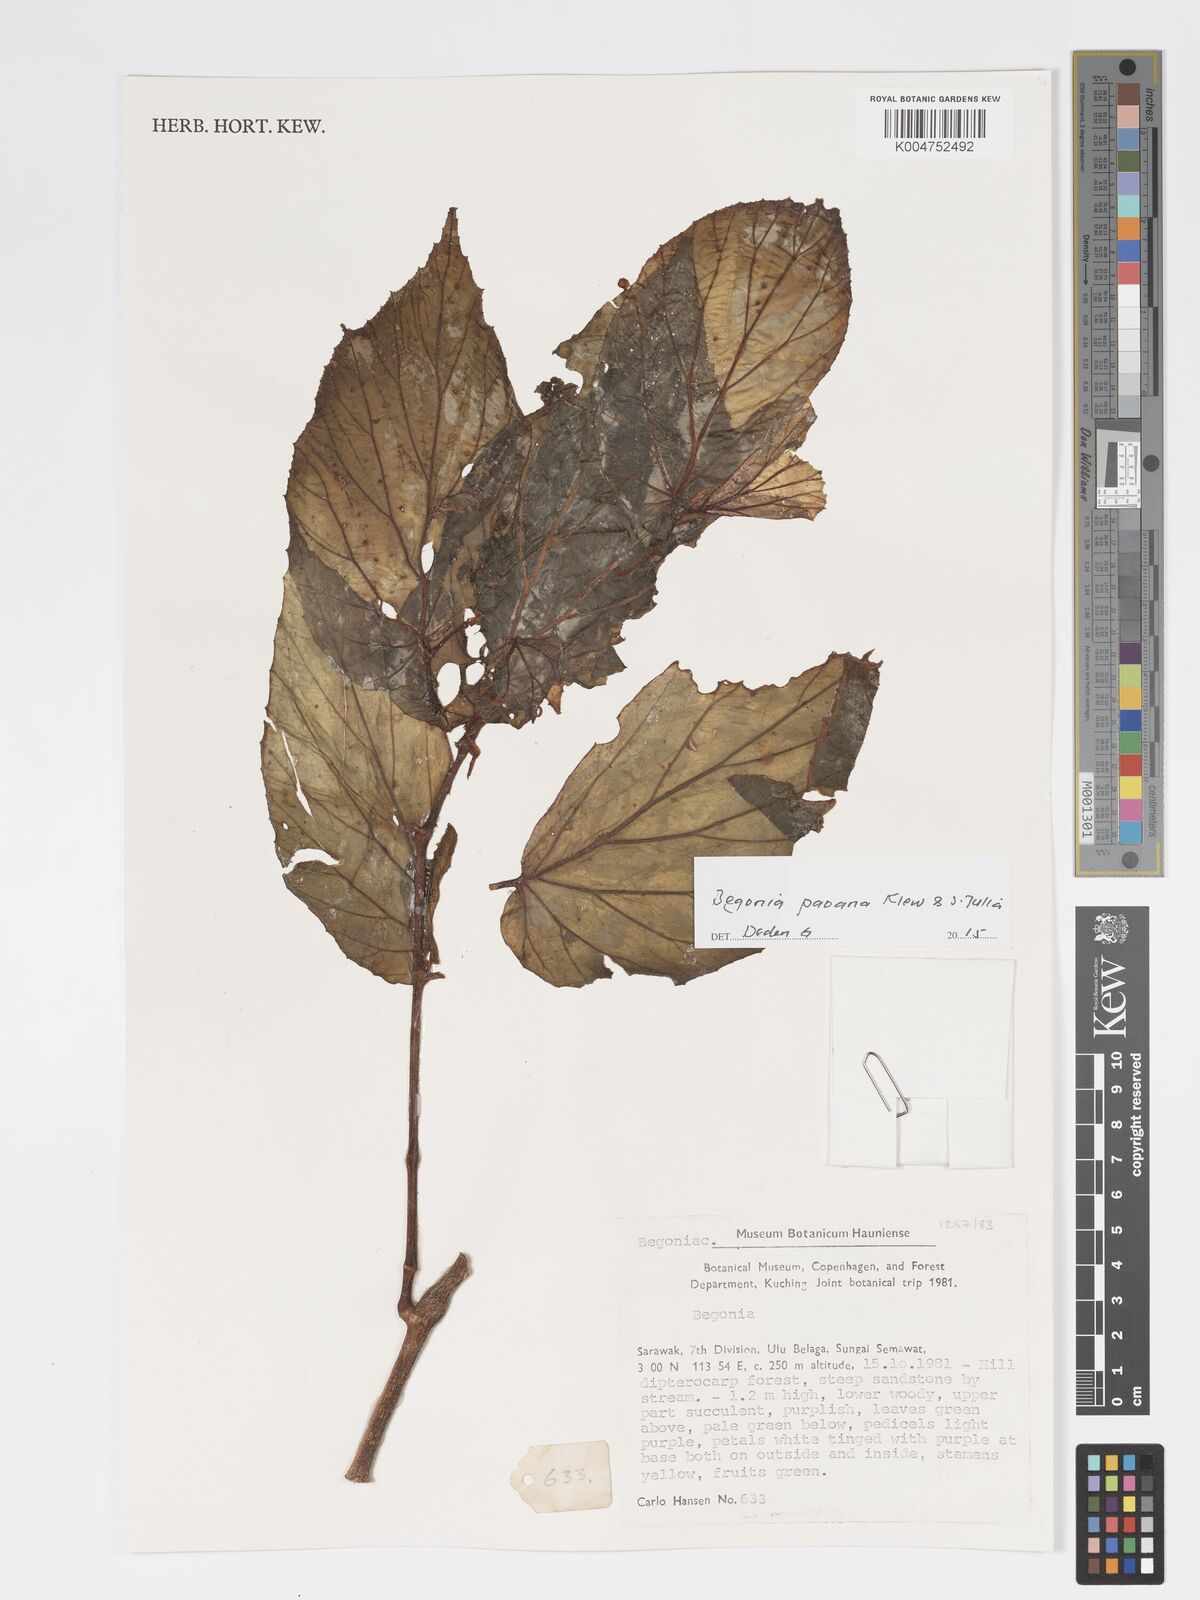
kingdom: Plantae
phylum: Tracheophyta
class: Magnoliopsida
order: Cucurbitales
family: Begoniaceae
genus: Begonia
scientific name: Begonia paoana
